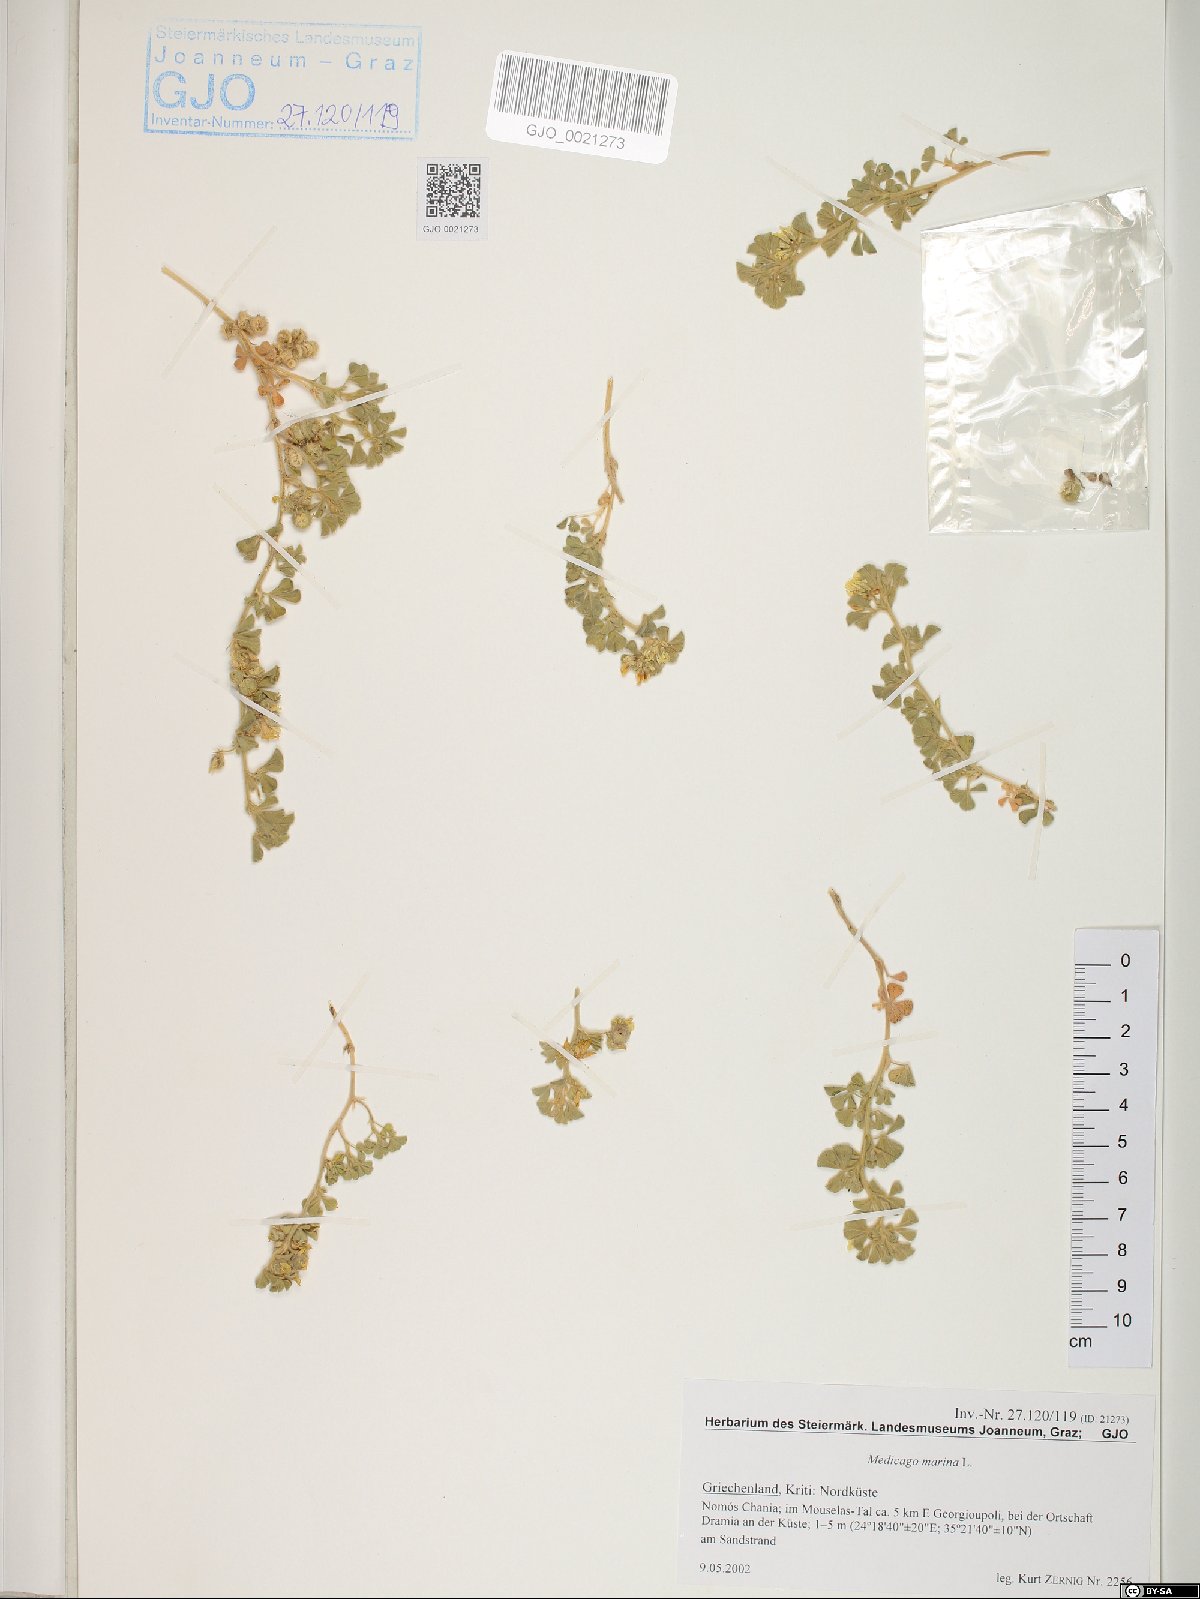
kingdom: Plantae
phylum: Tracheophyta
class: Magnoliopsida
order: Fabales
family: Fabaceae
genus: Medicago
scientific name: Medicago marina
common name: Sea medick
